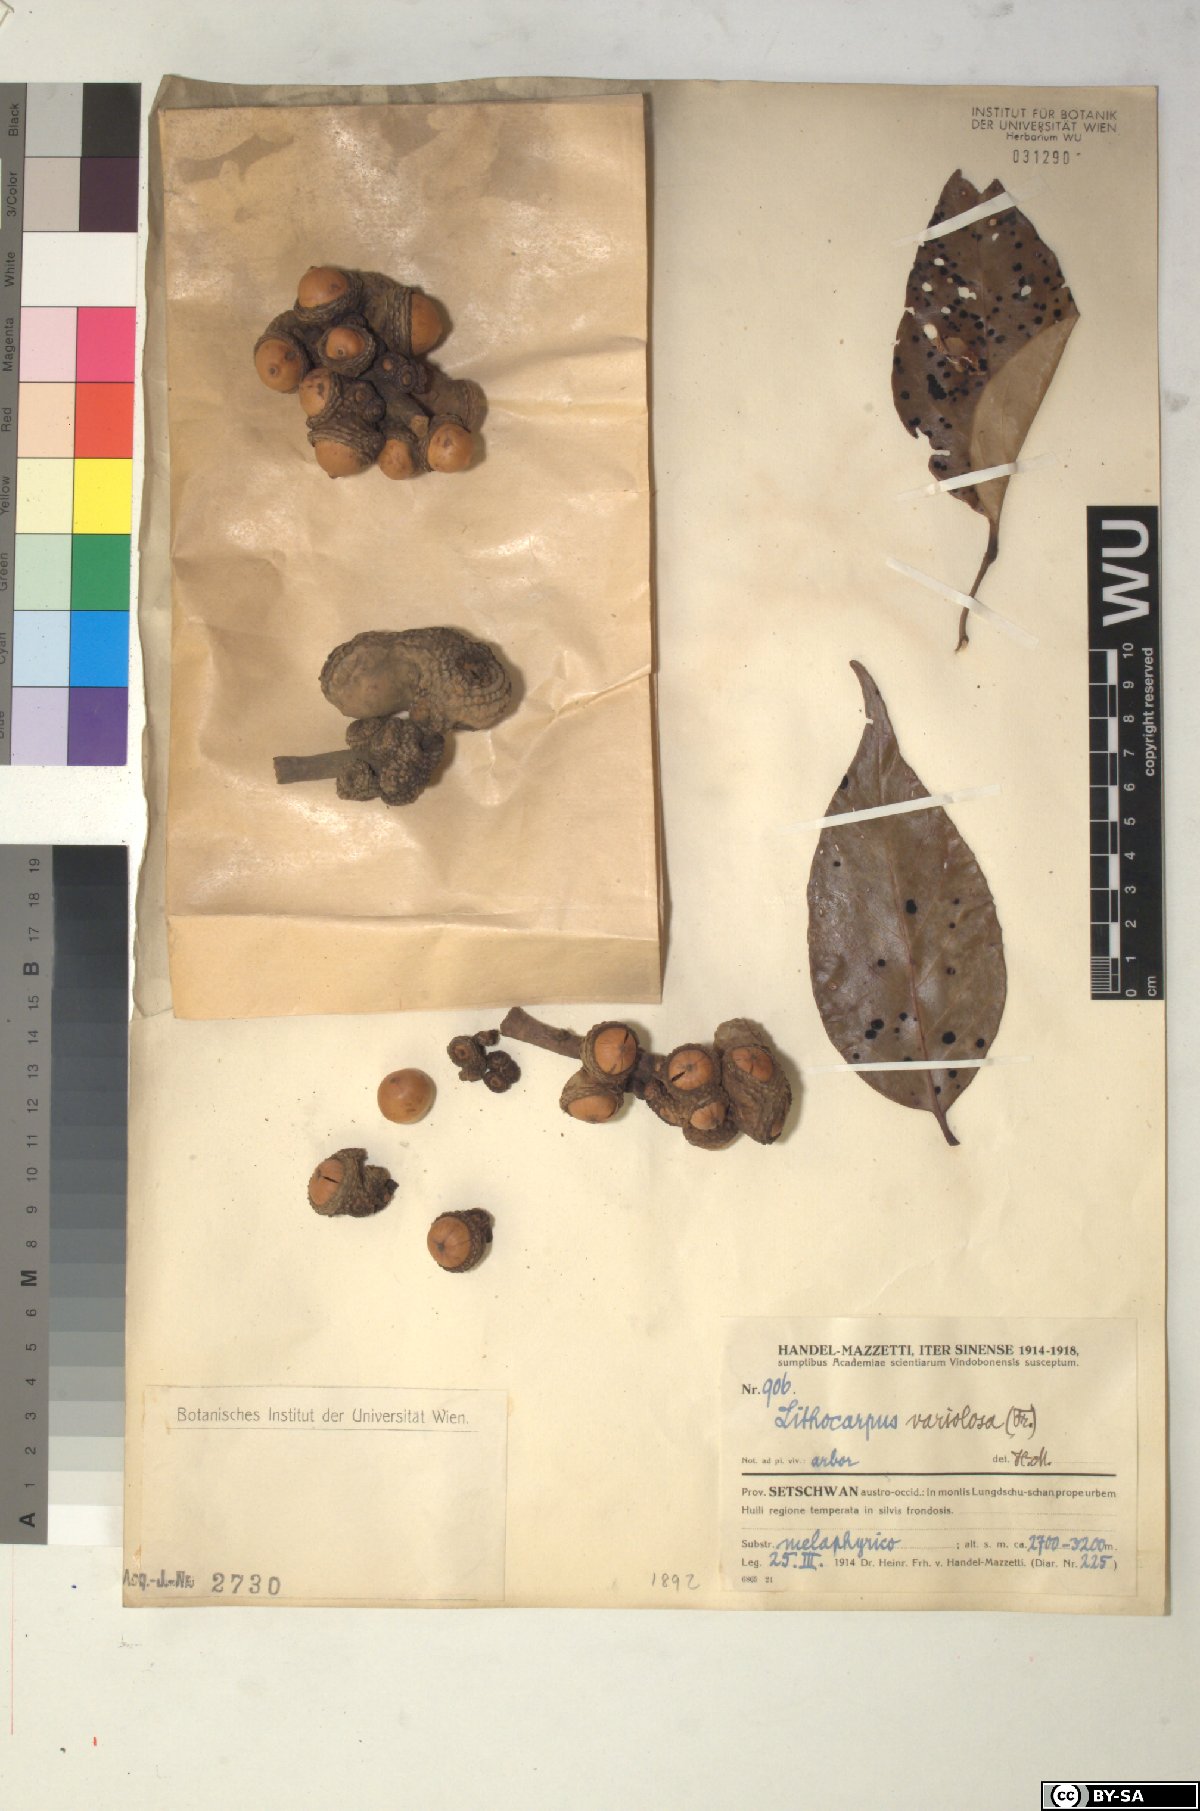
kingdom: Plantae
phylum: Tracheophyta
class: Magnoliopsida
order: Fagales
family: Fagaceae
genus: Lithocarpus
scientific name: Lithocarpus variolosus
